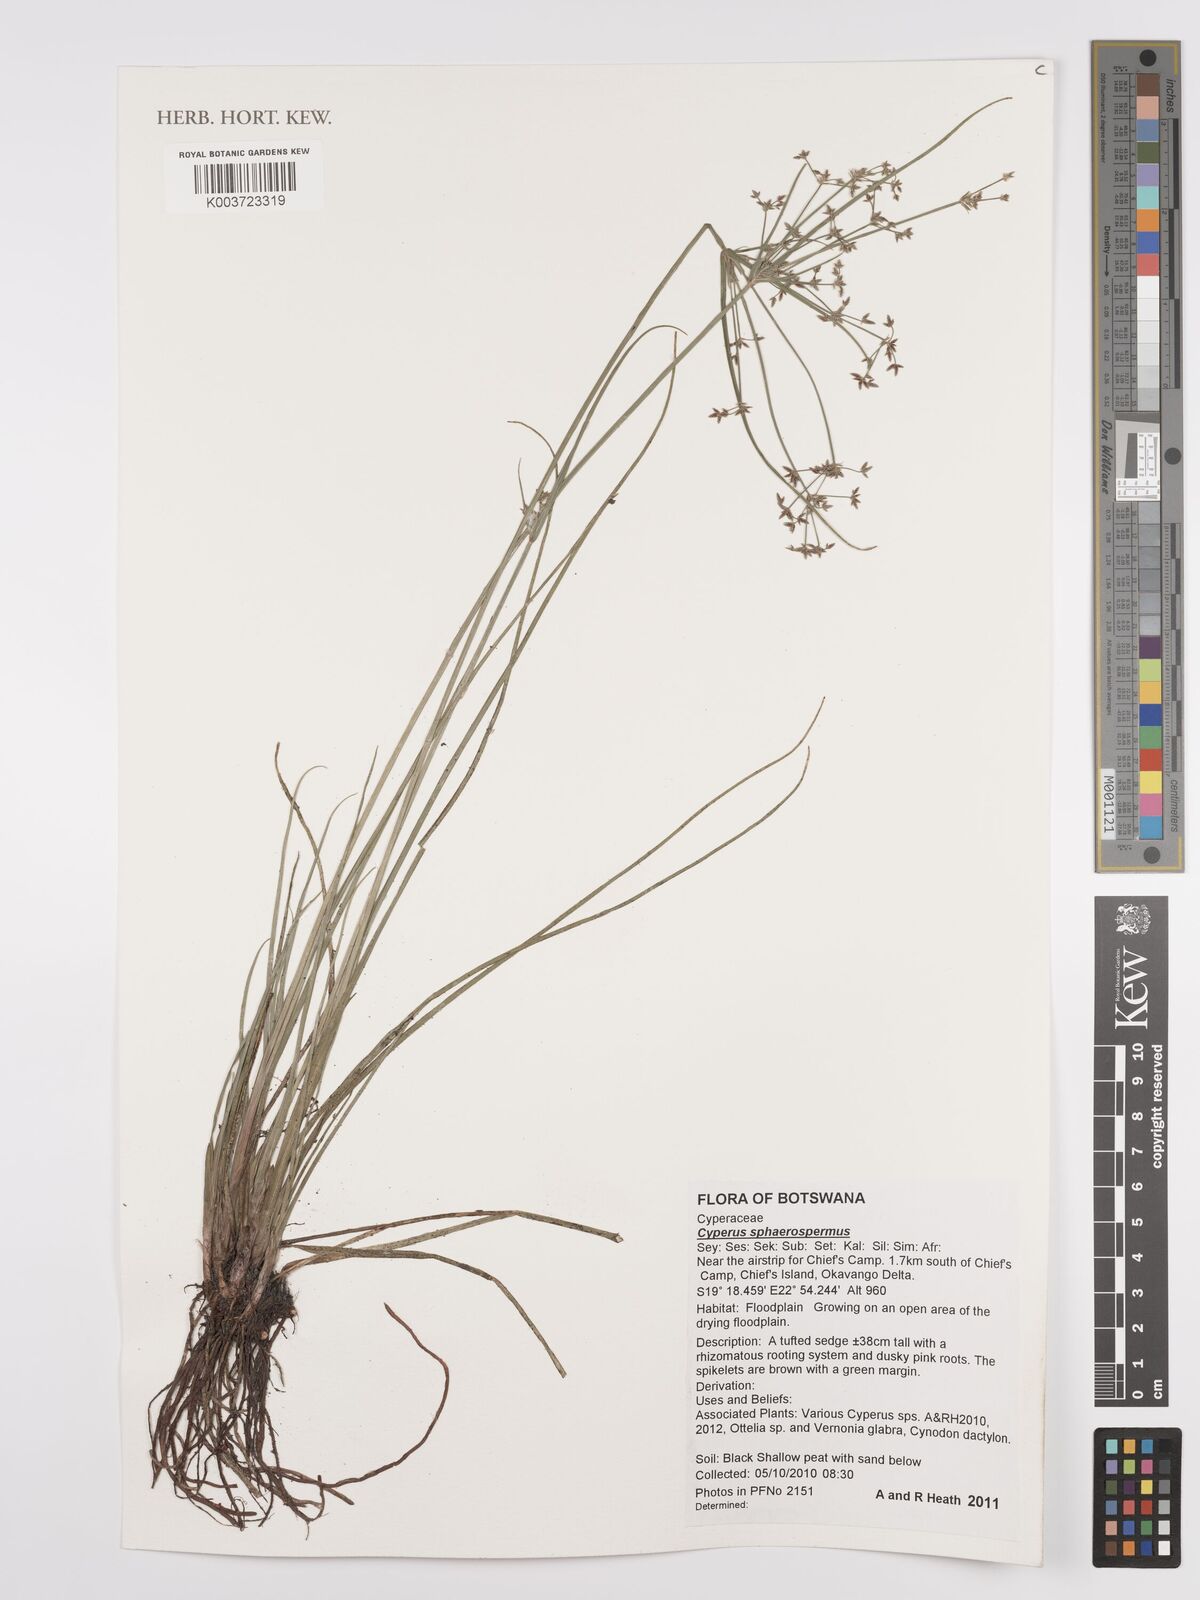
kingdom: Plantae
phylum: Tracheophyta
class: Liliopsida
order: Poales
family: Cyperaceae
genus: Cyperus
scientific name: Cyperus denudatus
